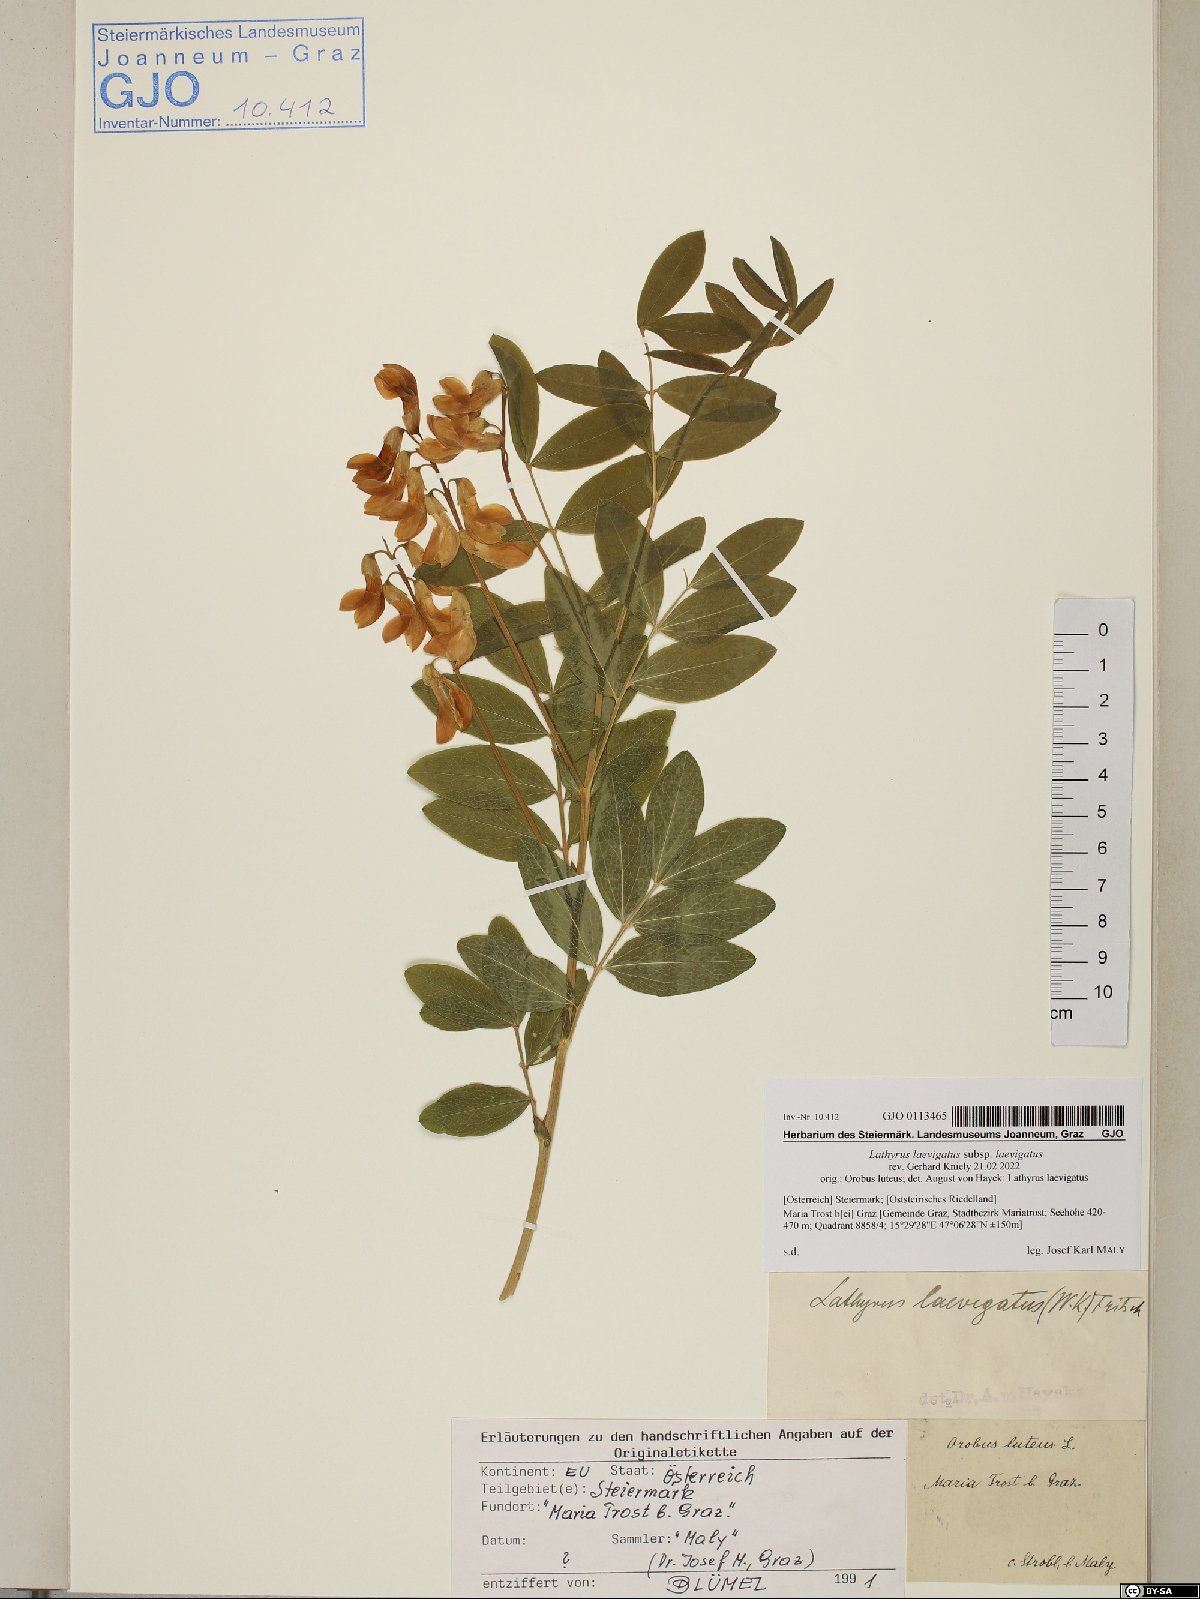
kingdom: Plantae
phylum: Tracheophyta
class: Magnoliopsida
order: Fabales
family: Fabaceae
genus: Lathyrus
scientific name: Lathyrus laevigatus
